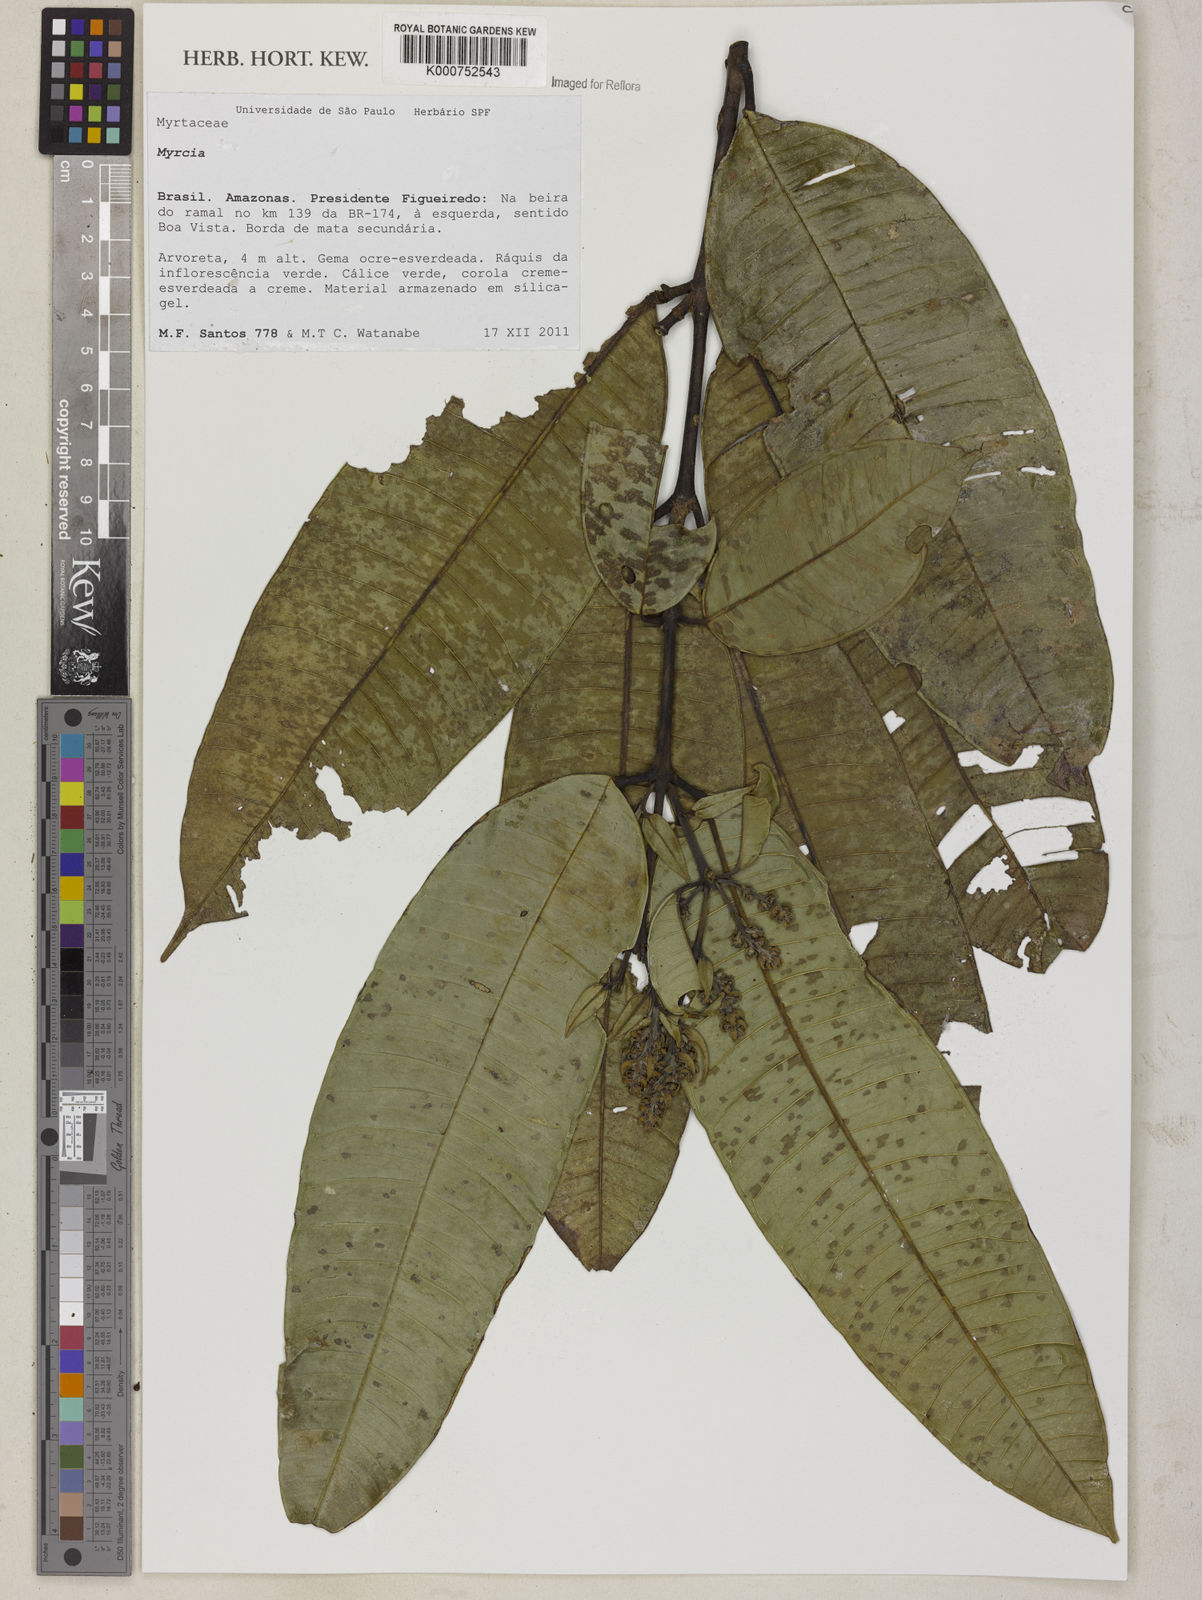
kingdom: Plantae
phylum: Tracheophyta
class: Magnoliopsida
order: Myrtales
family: Myrtaceae
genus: Myrcia
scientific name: Myrcia mollis
